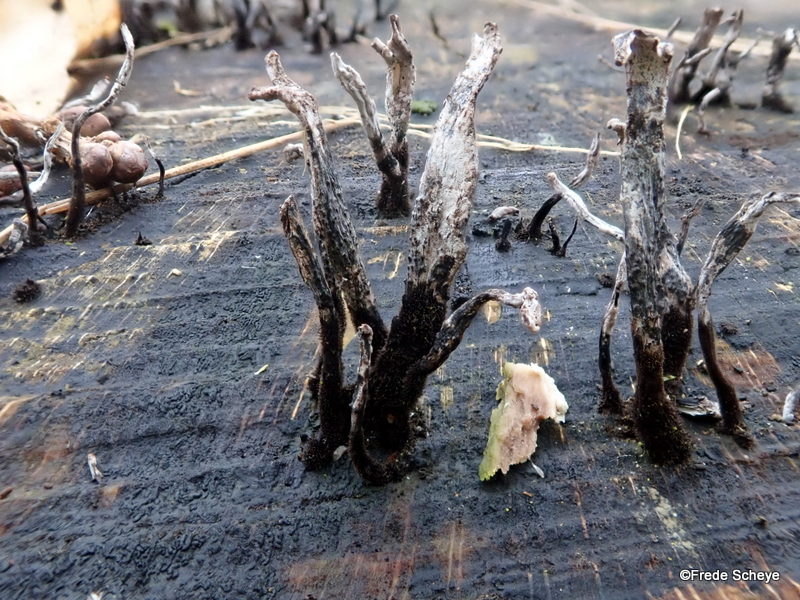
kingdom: Fungi
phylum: Ascomycota
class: Sordariomycetes
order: Xylariales
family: Xylariaceae
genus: Xylaria
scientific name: Xylaria hypoxylon
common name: grenet stødsvamp
